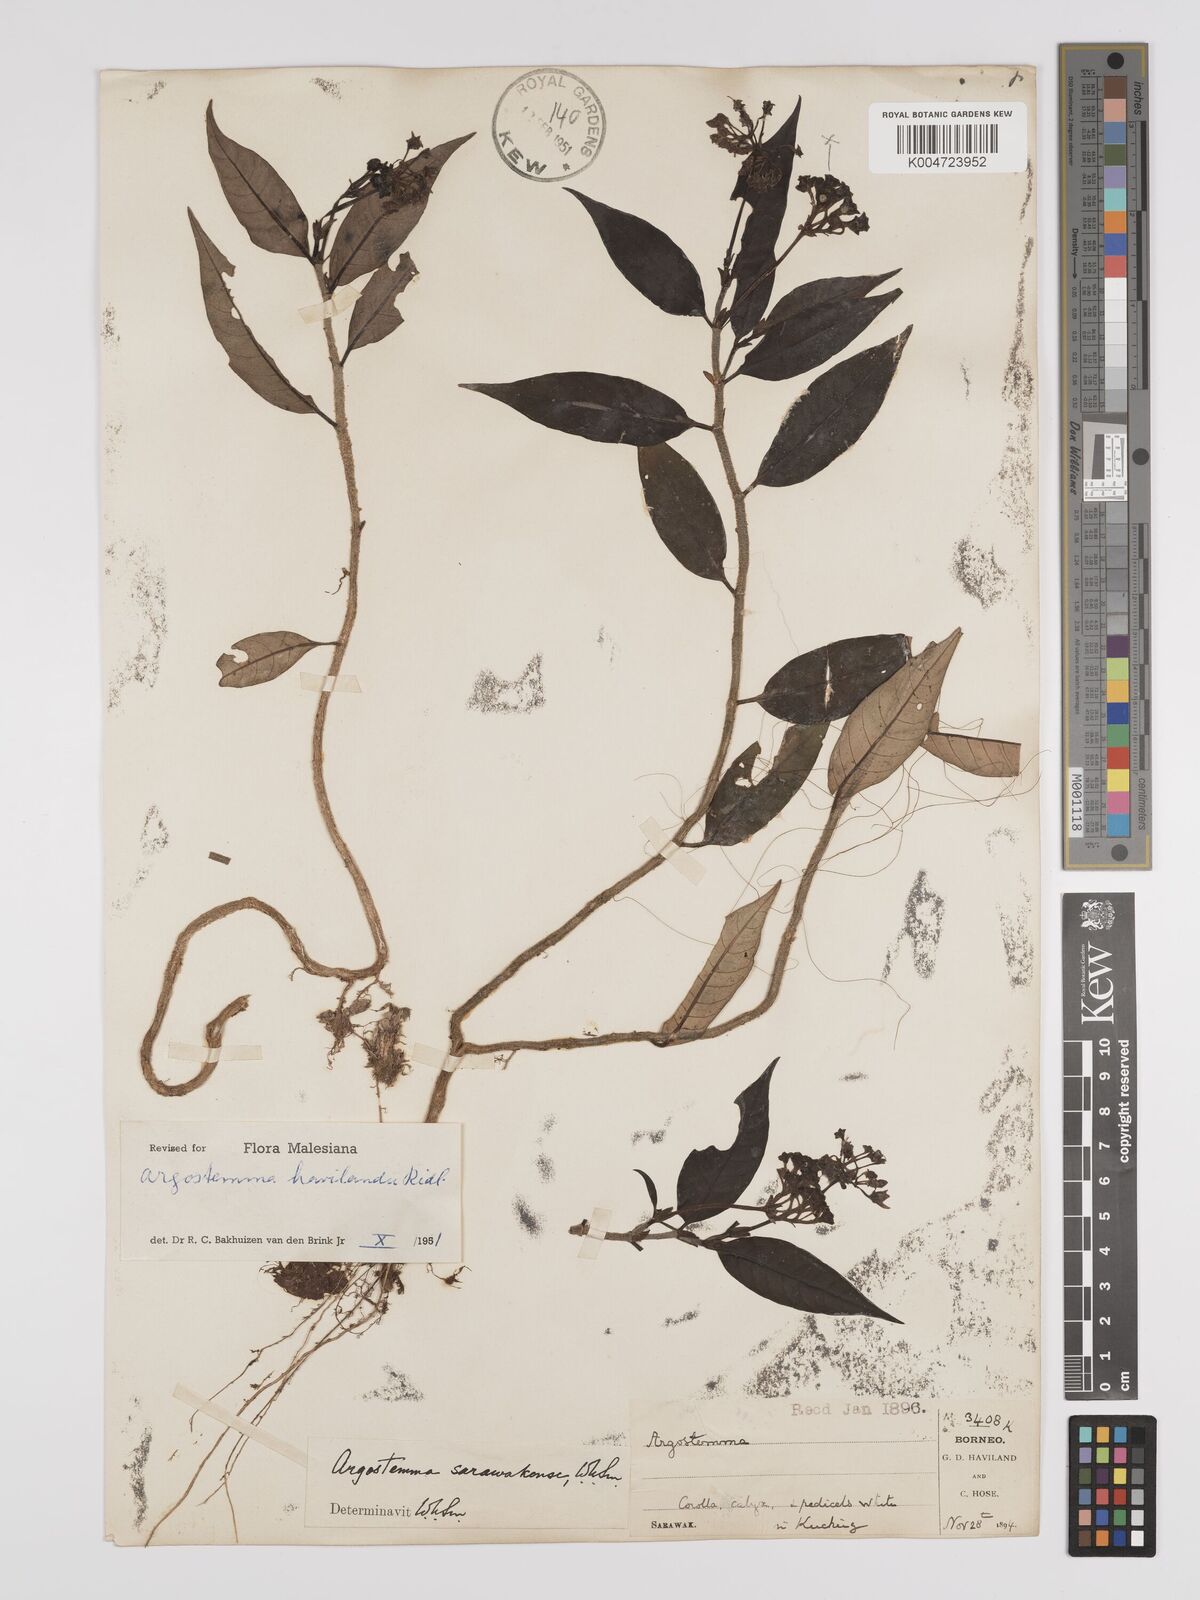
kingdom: Plantae
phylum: Tracheophyta
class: Magnoliopsida
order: Gentianales
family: Rubiaceae
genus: Argostemma
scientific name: Argostemma havilandii
